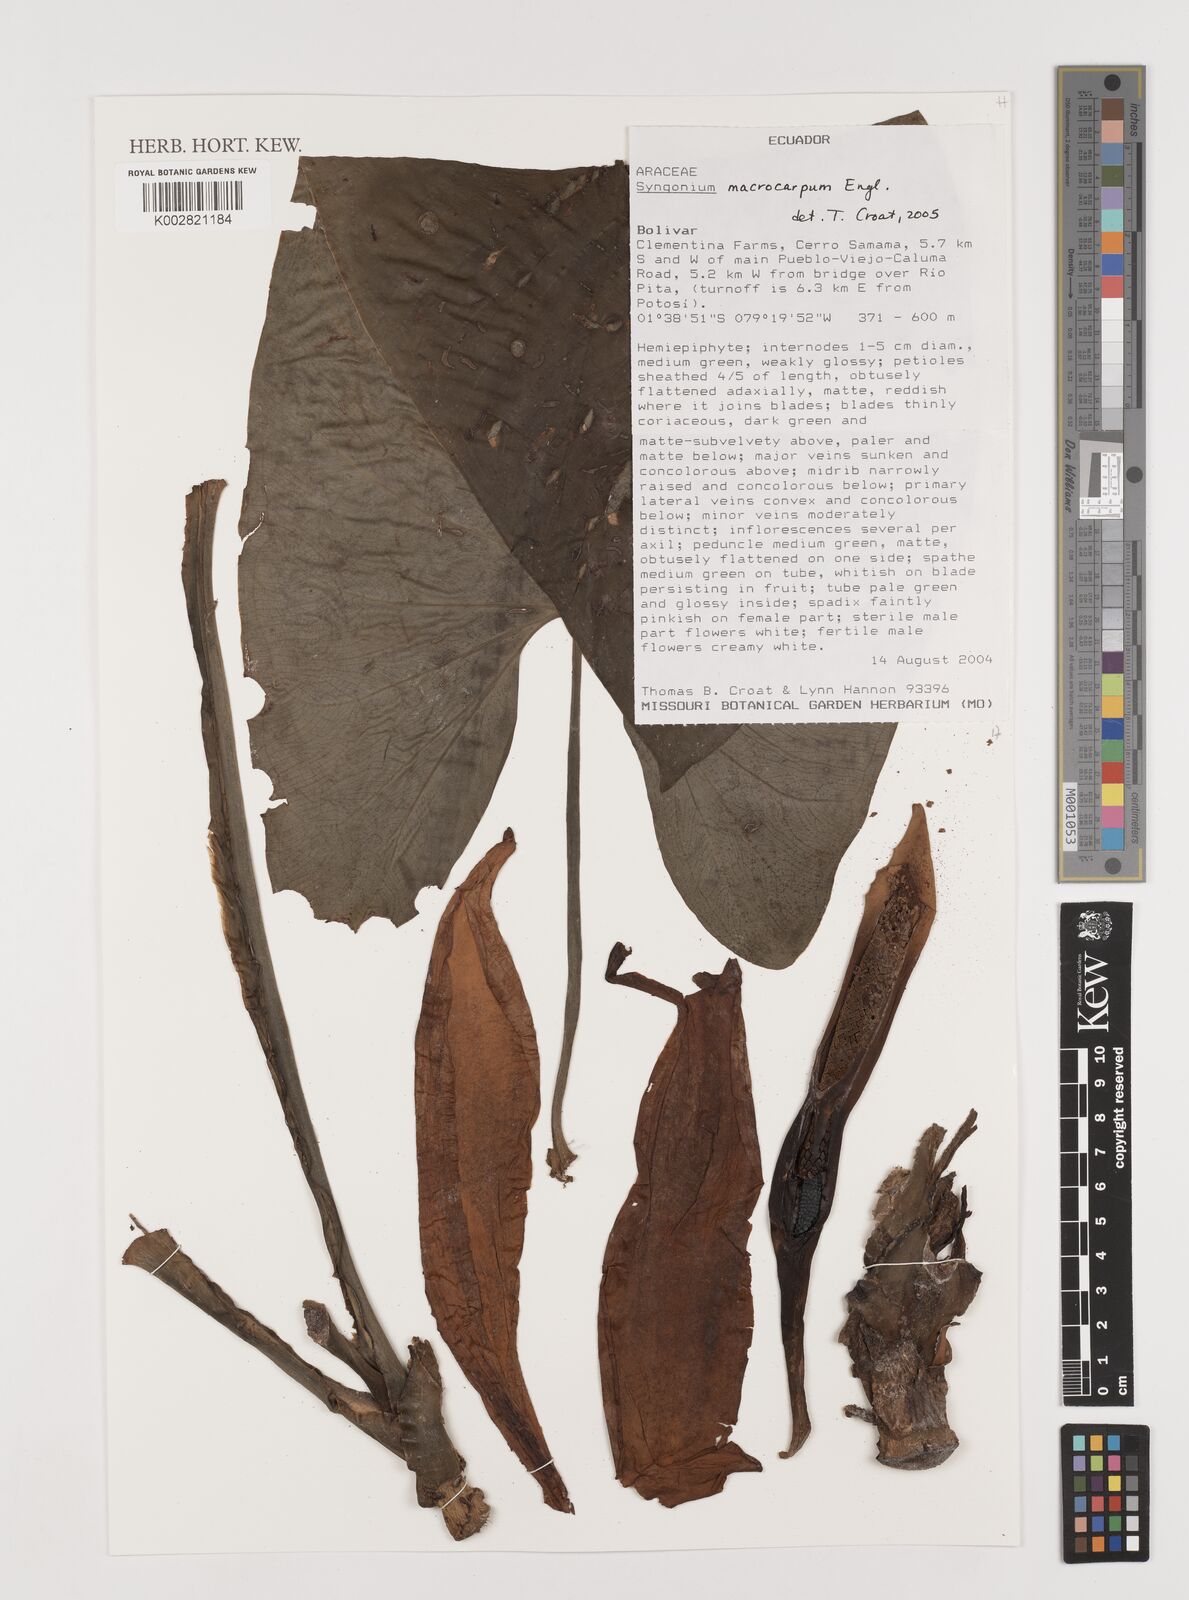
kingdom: Plantae
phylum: Tracheophyta
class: Liliopsida
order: Alismatales
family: Araceae
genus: Syngonium
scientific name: Syngonium macrophyllum
